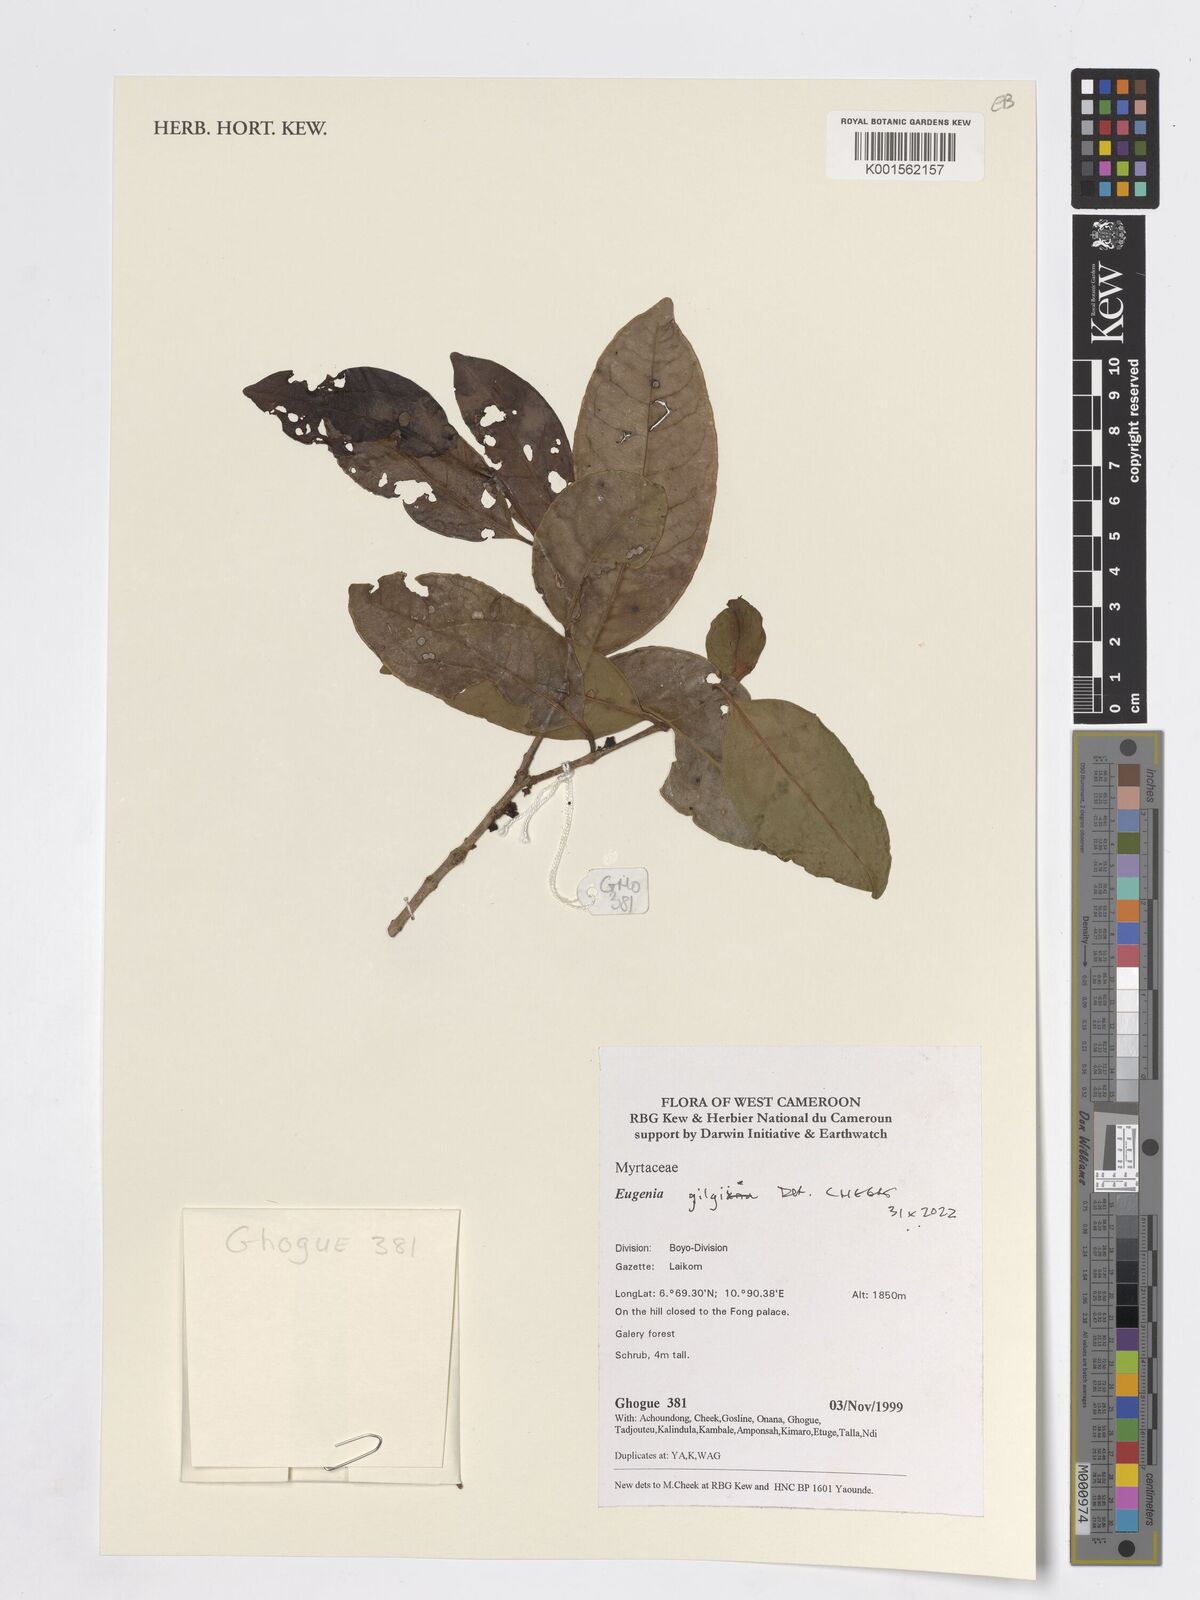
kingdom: Plantae
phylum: Tracheophyta
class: Magnoliopsida
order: Myrtales
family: Myrtaceae
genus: Eugenia
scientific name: Eugenia gilgii
